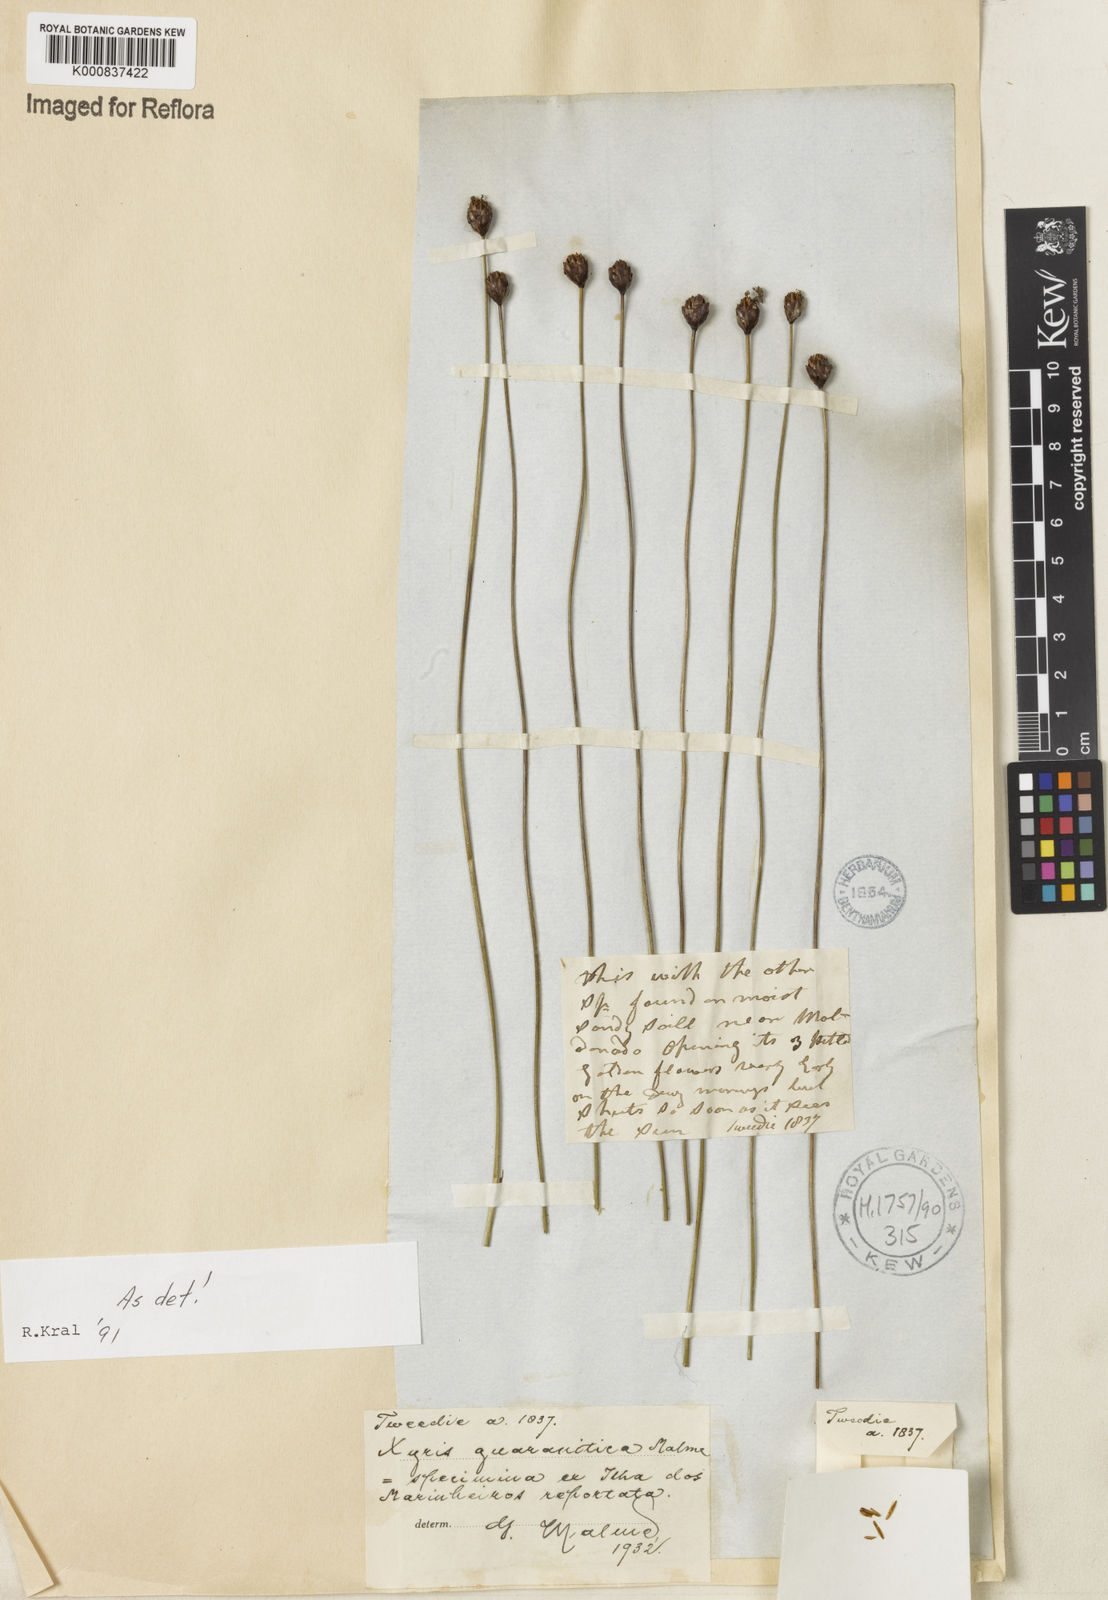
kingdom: Plantae
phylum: Tracheophyta
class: Liliopsida
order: Poales
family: Xyridaceae
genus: Xyris
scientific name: Xyris guaranitica
